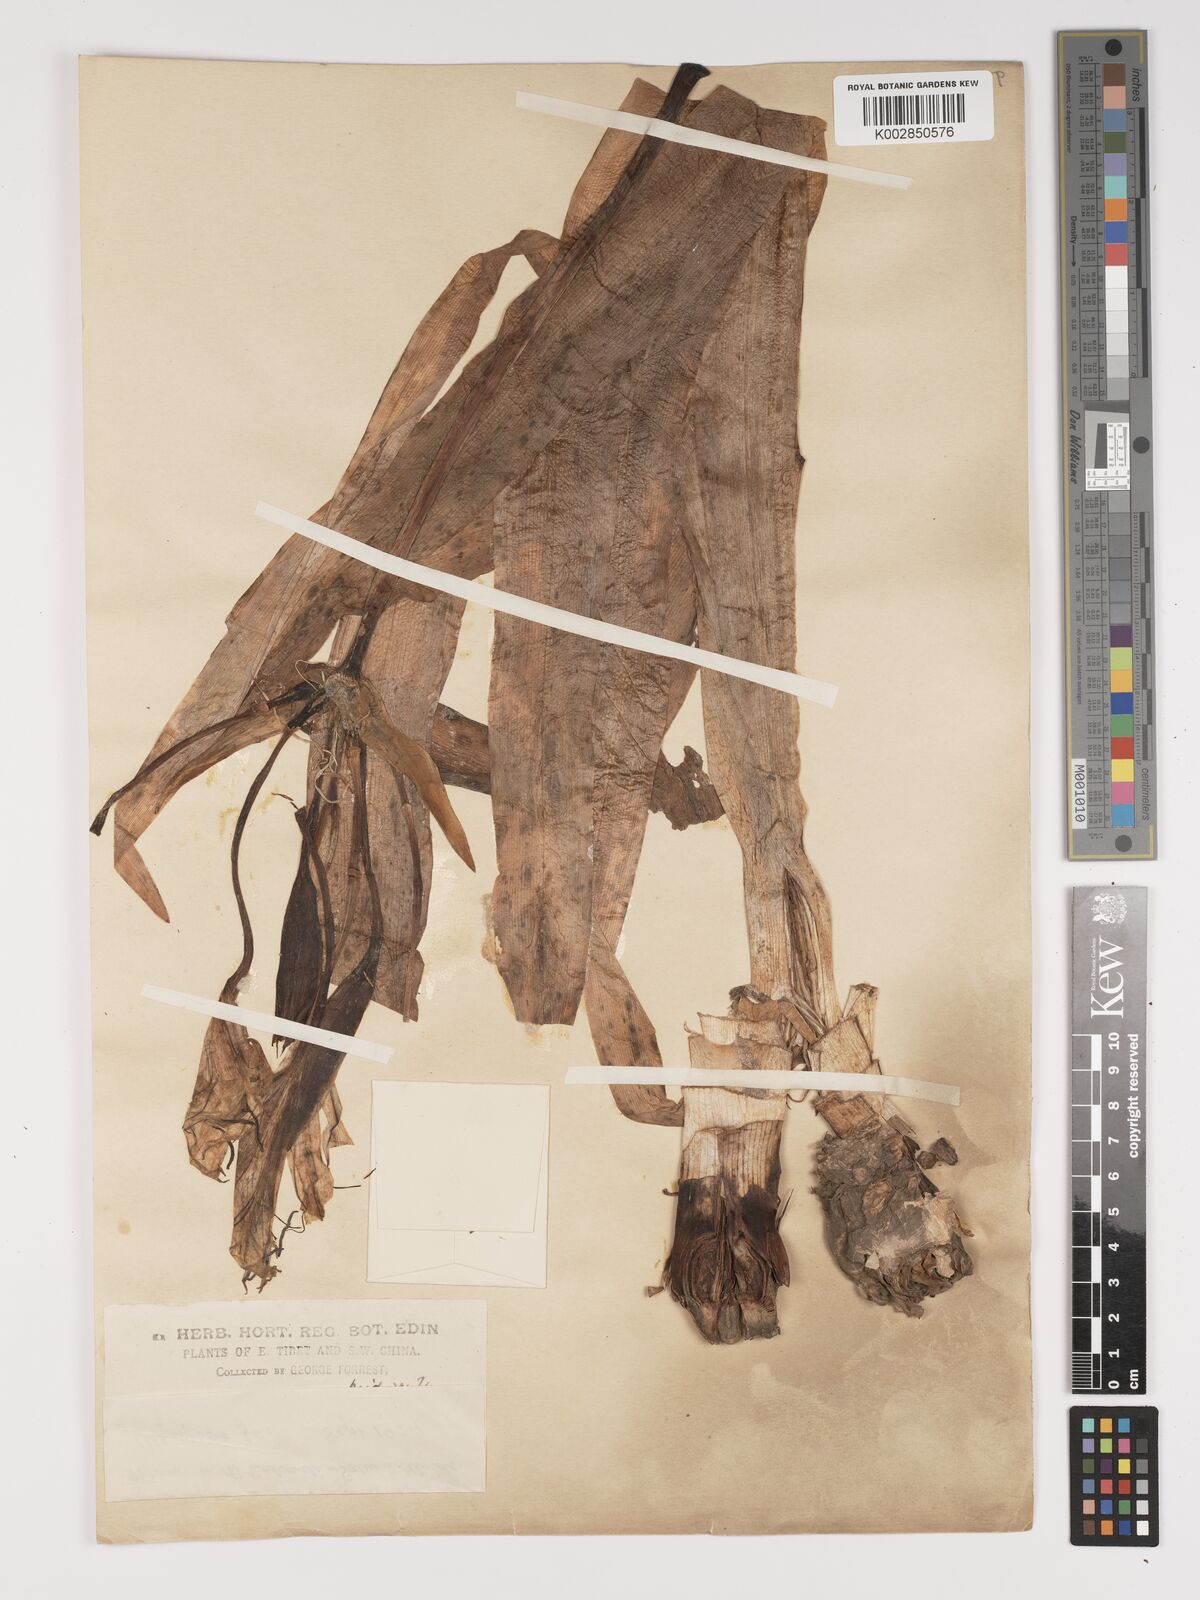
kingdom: Plantae
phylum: Tracheophyta
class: Liliopsida
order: Asparagales
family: Amaryllidaceae
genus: Crinum
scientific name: Crinum
